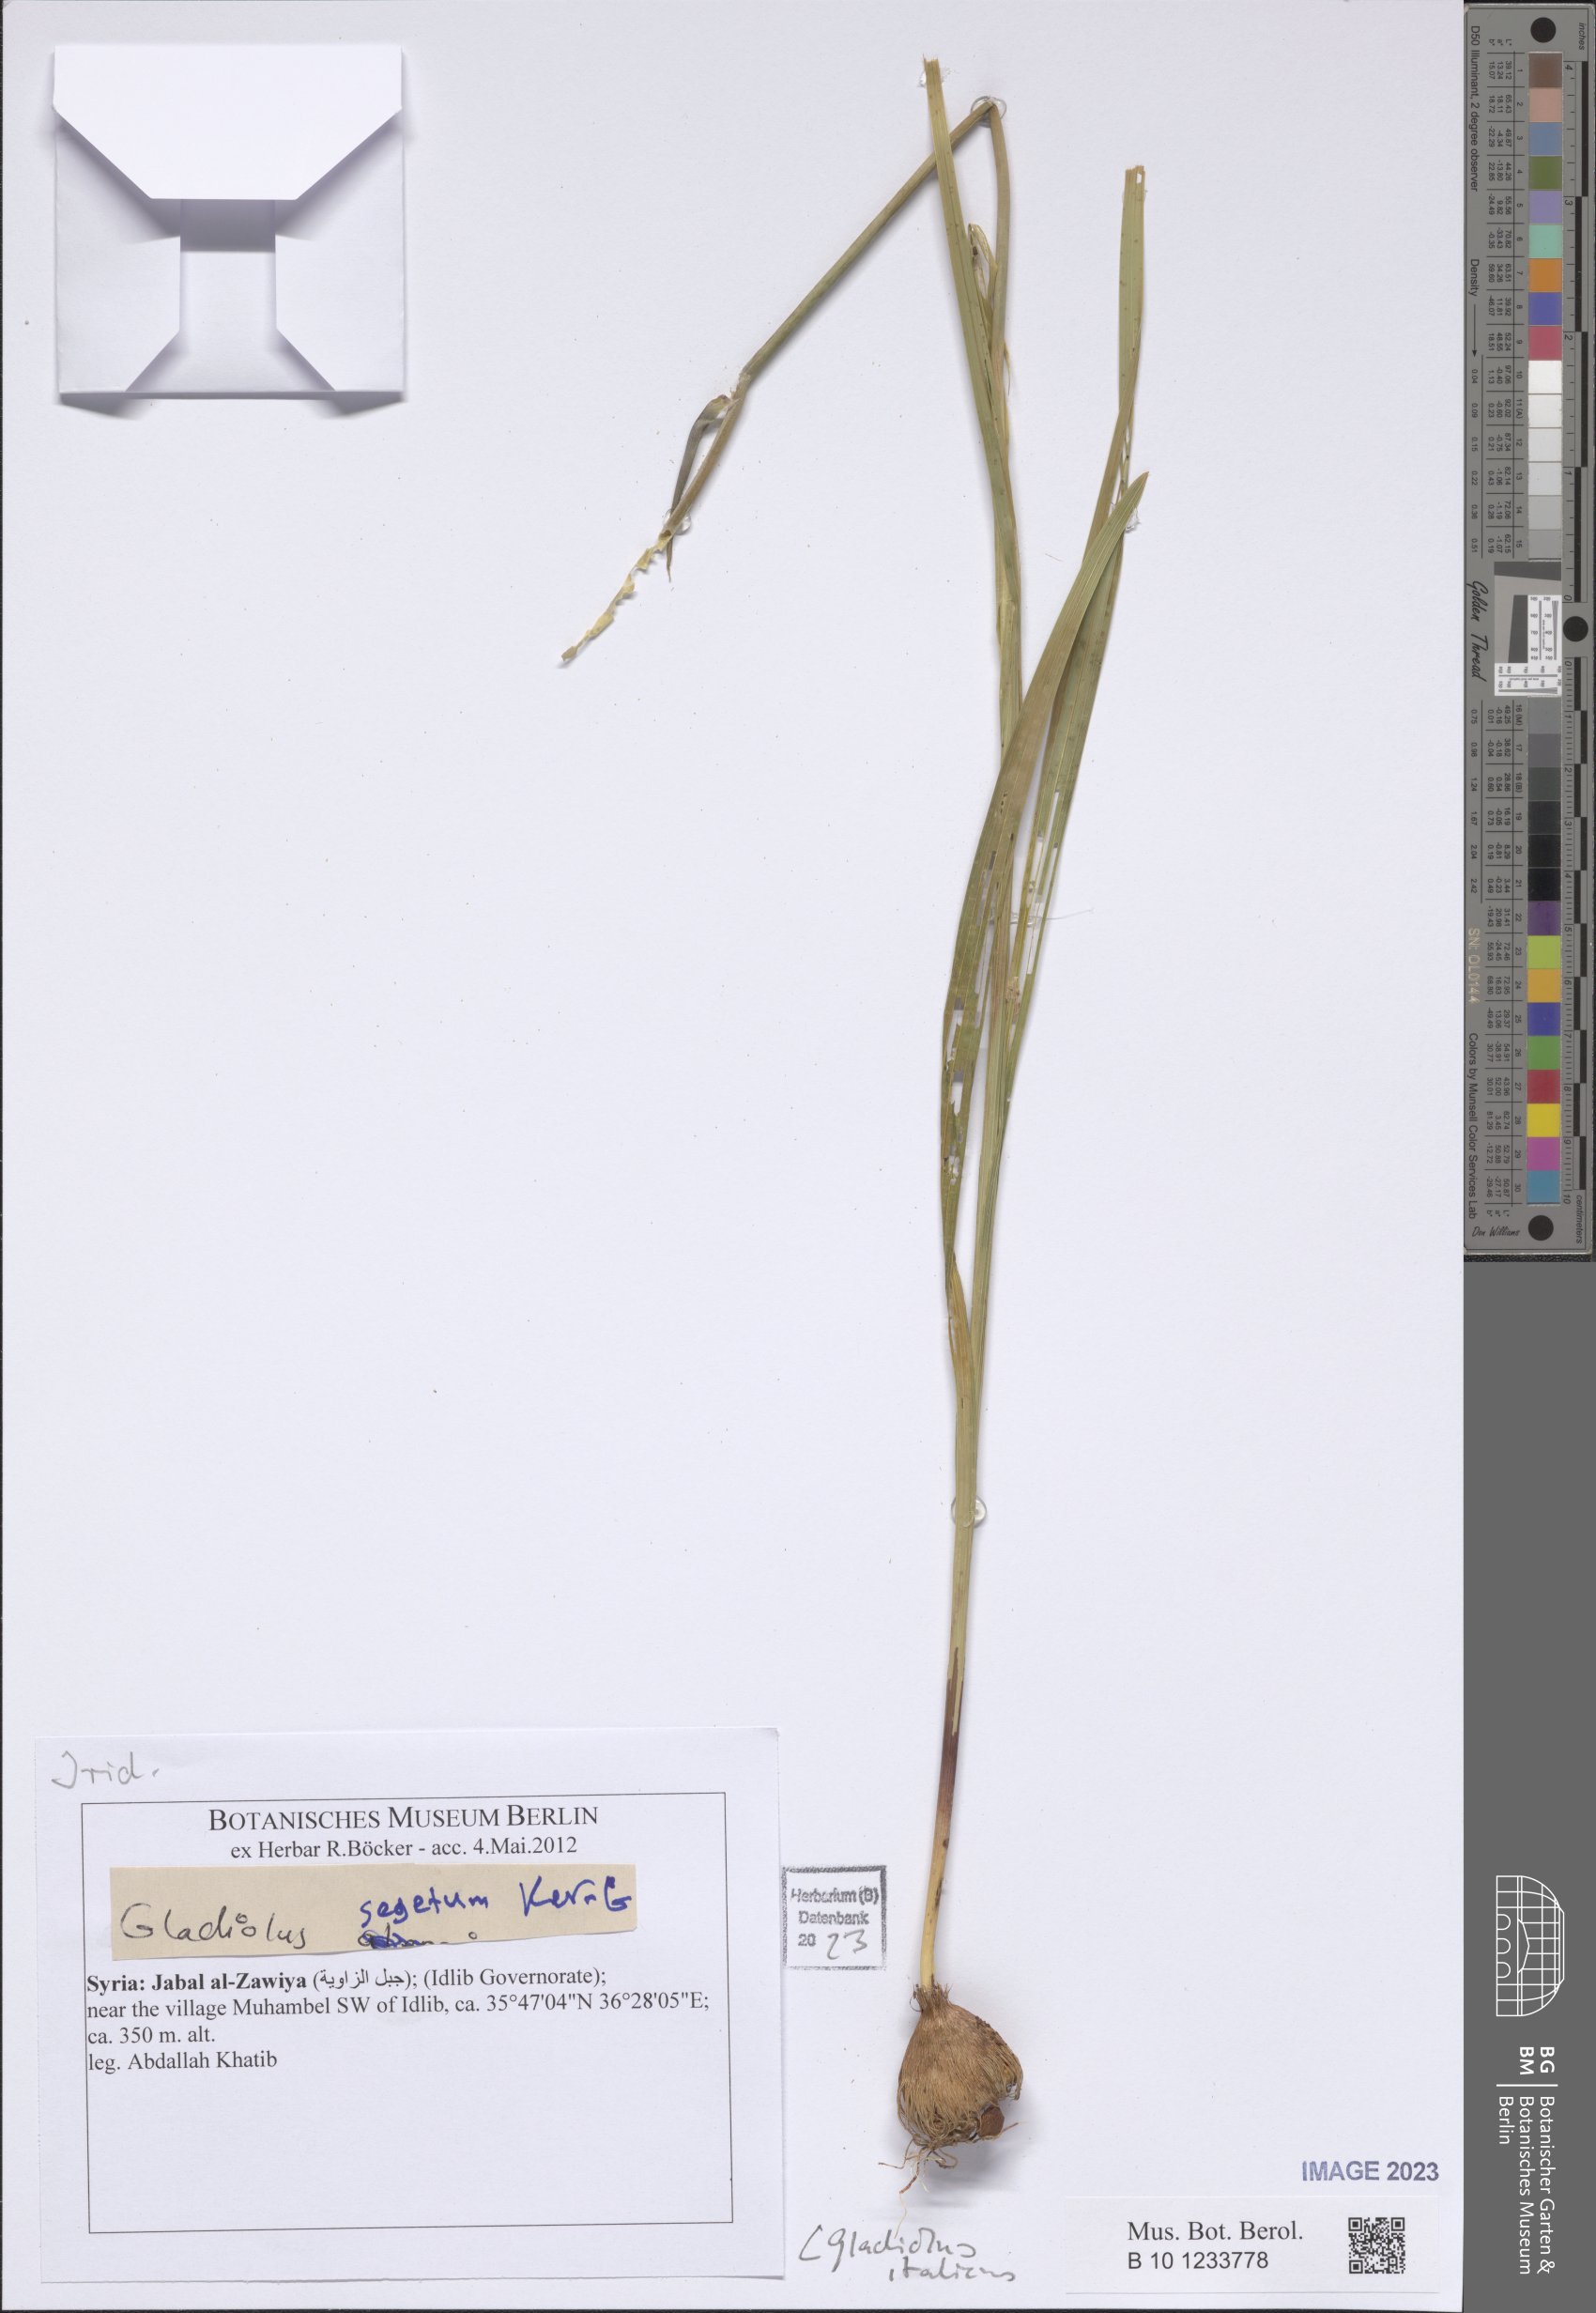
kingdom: Plantae
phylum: Tracheophyta
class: Liliopsida
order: Asparagales
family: Iridaceae
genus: Gladiolus
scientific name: Gladiolus italicus
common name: Field gladiolus
